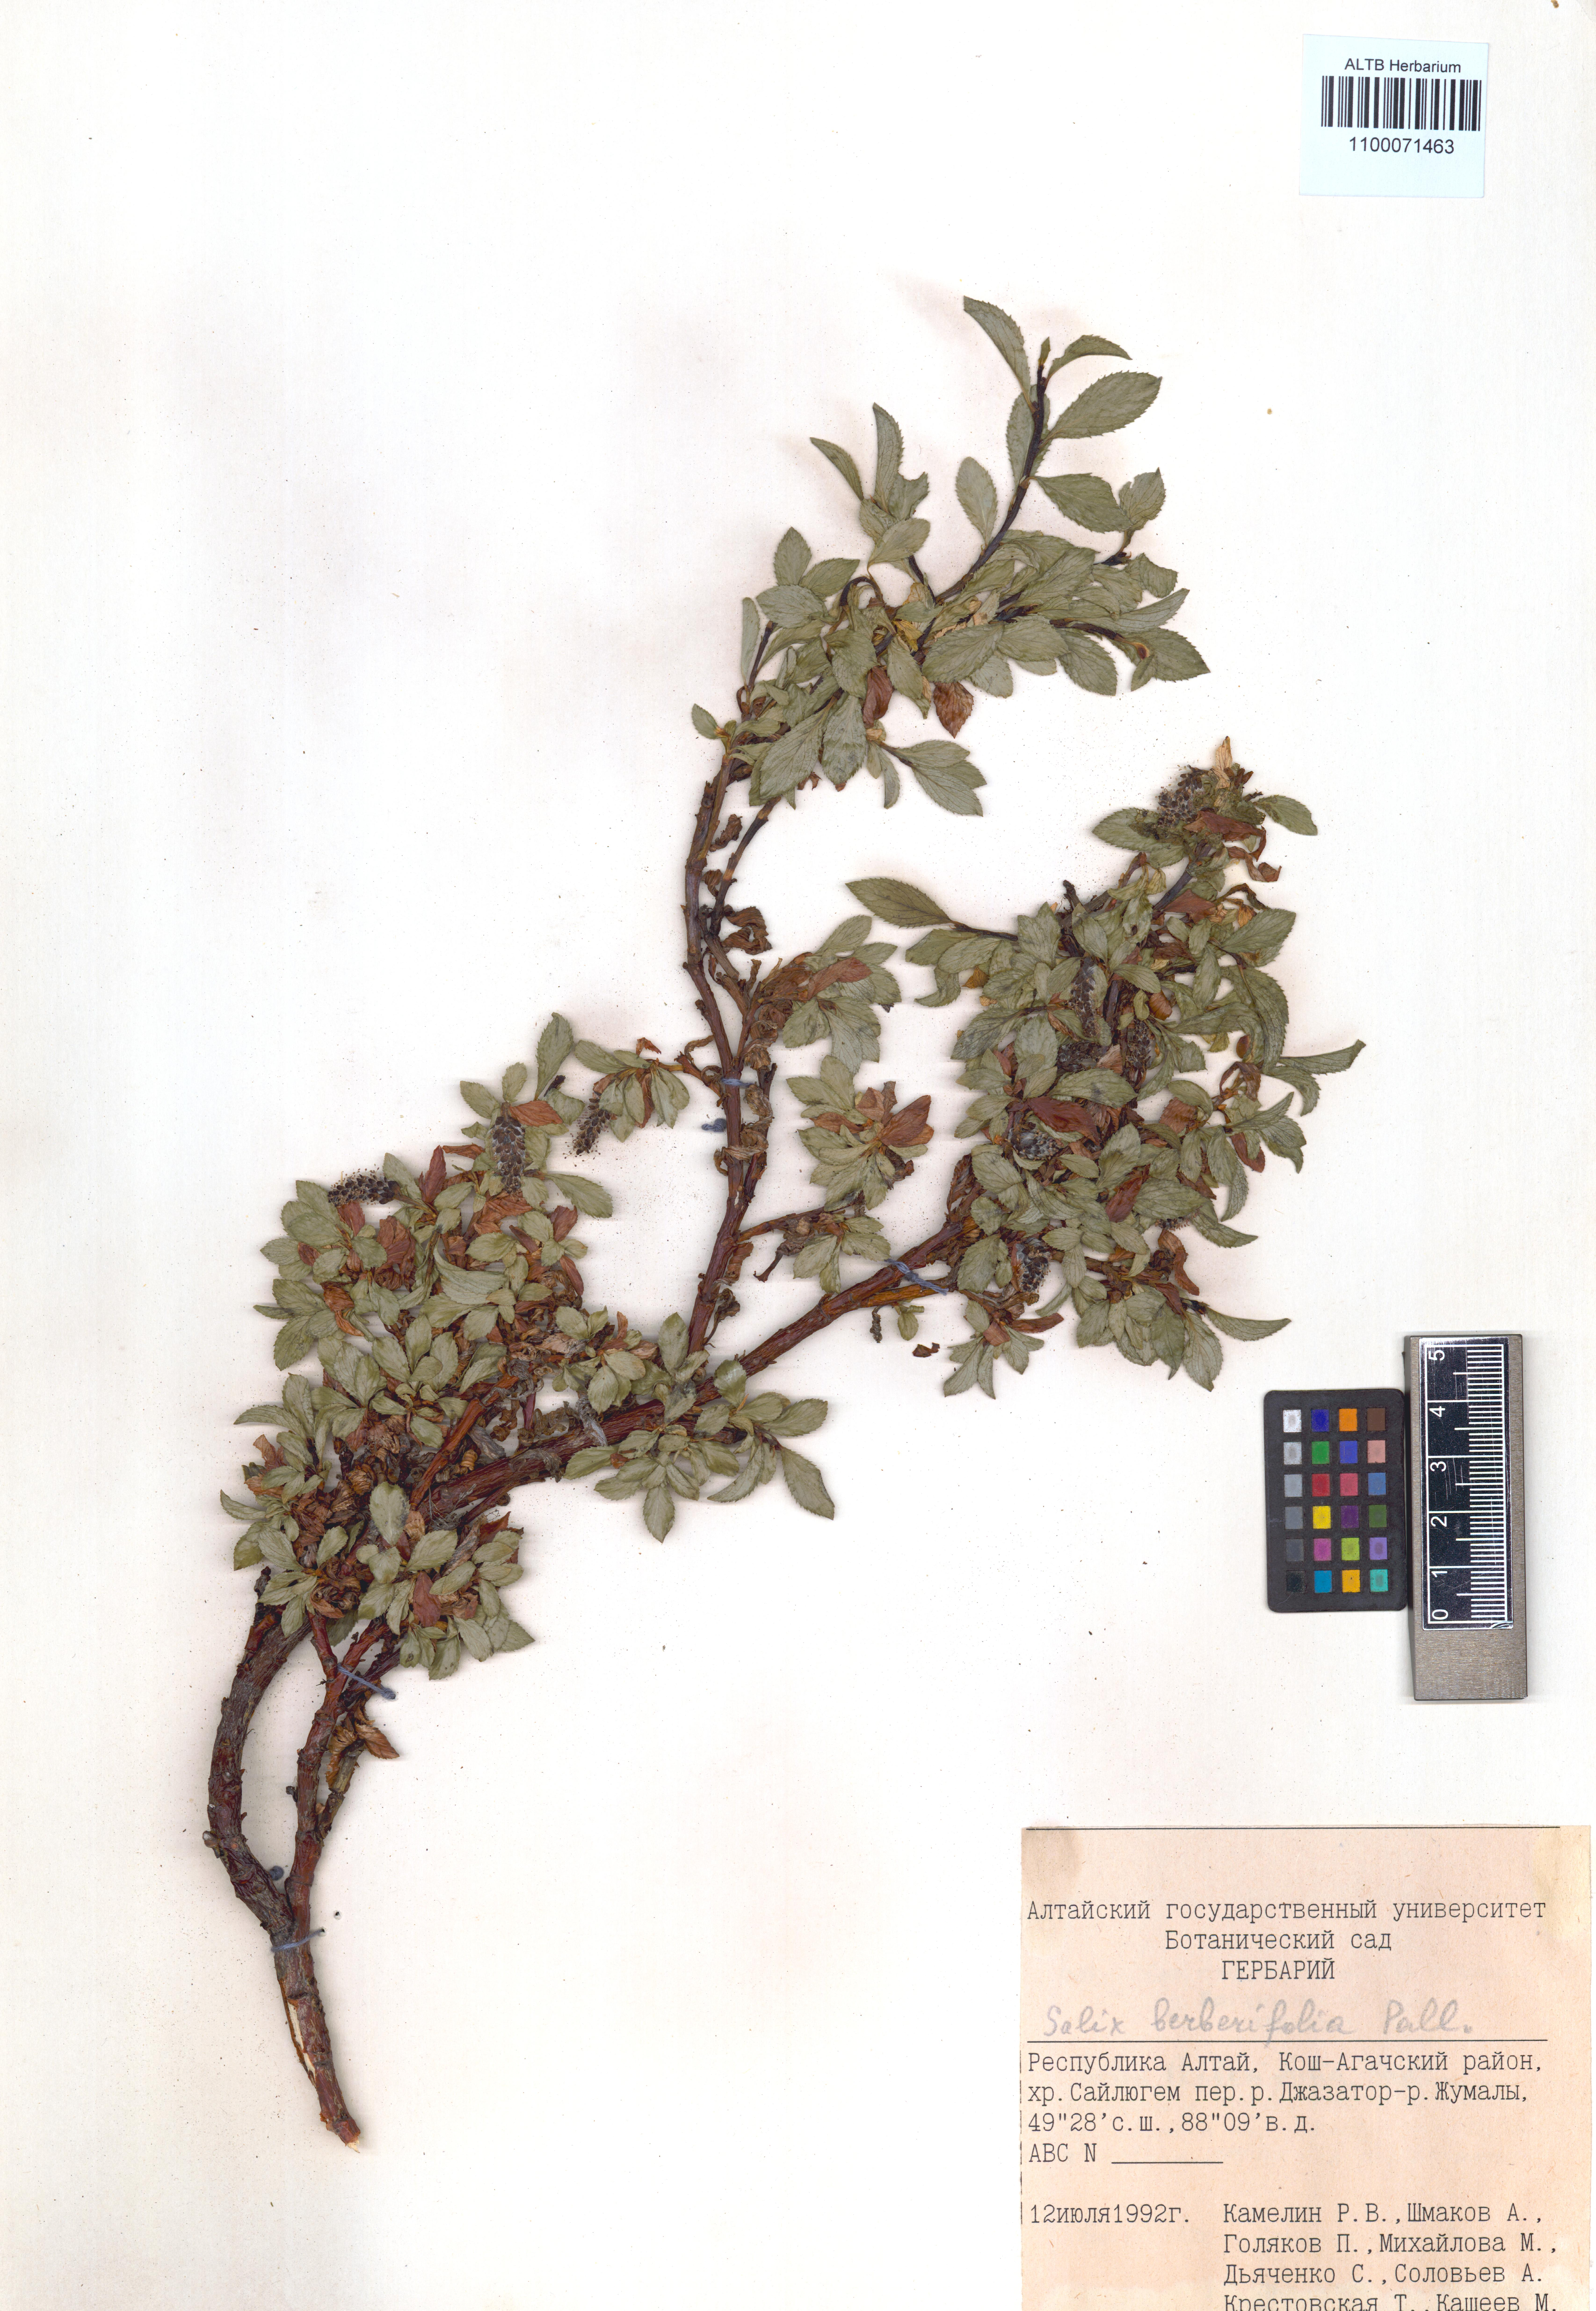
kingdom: Plantae
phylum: Tracheophyta
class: Magnoliopsida
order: Malpighiales
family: Salicaceae
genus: Salix
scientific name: Salix berberifolia
